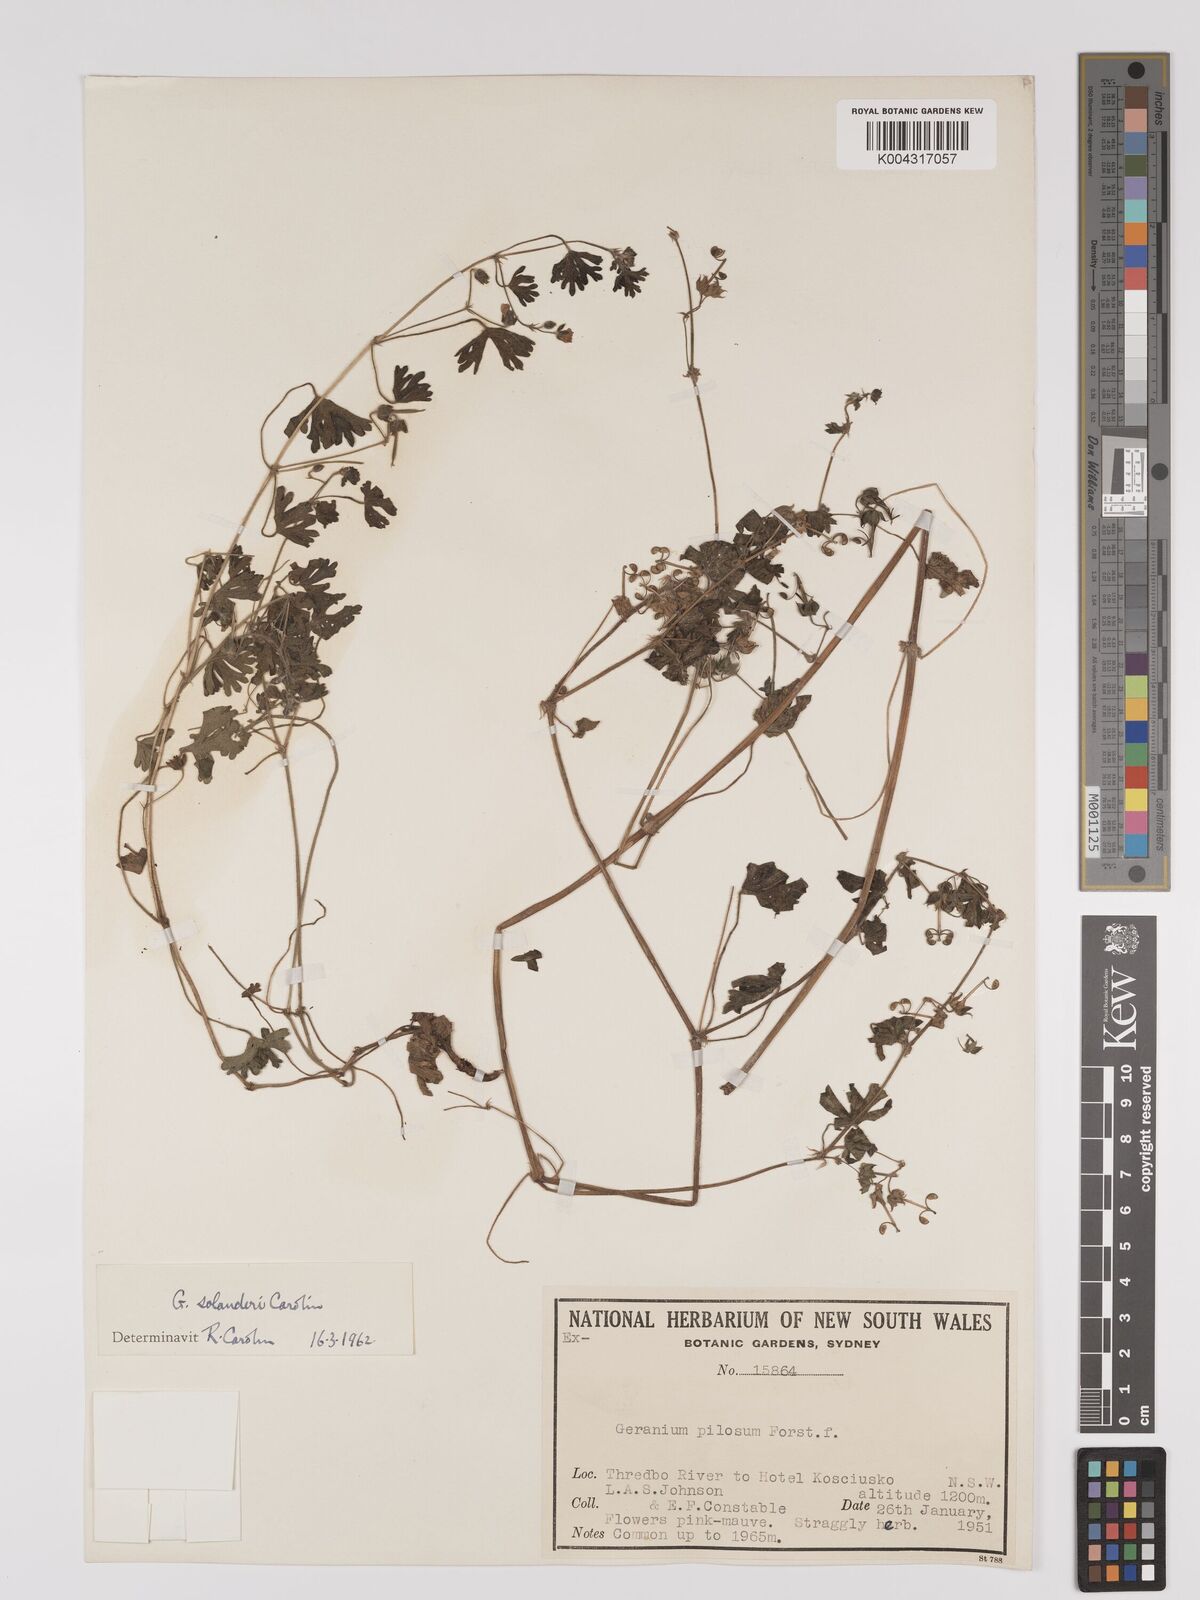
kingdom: Plantae
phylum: Tracheophyta
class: Magnoliopsida
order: Geraniales
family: Geraniaceae
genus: Geranium
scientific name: Geranium solanderi
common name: Solander's geranium
